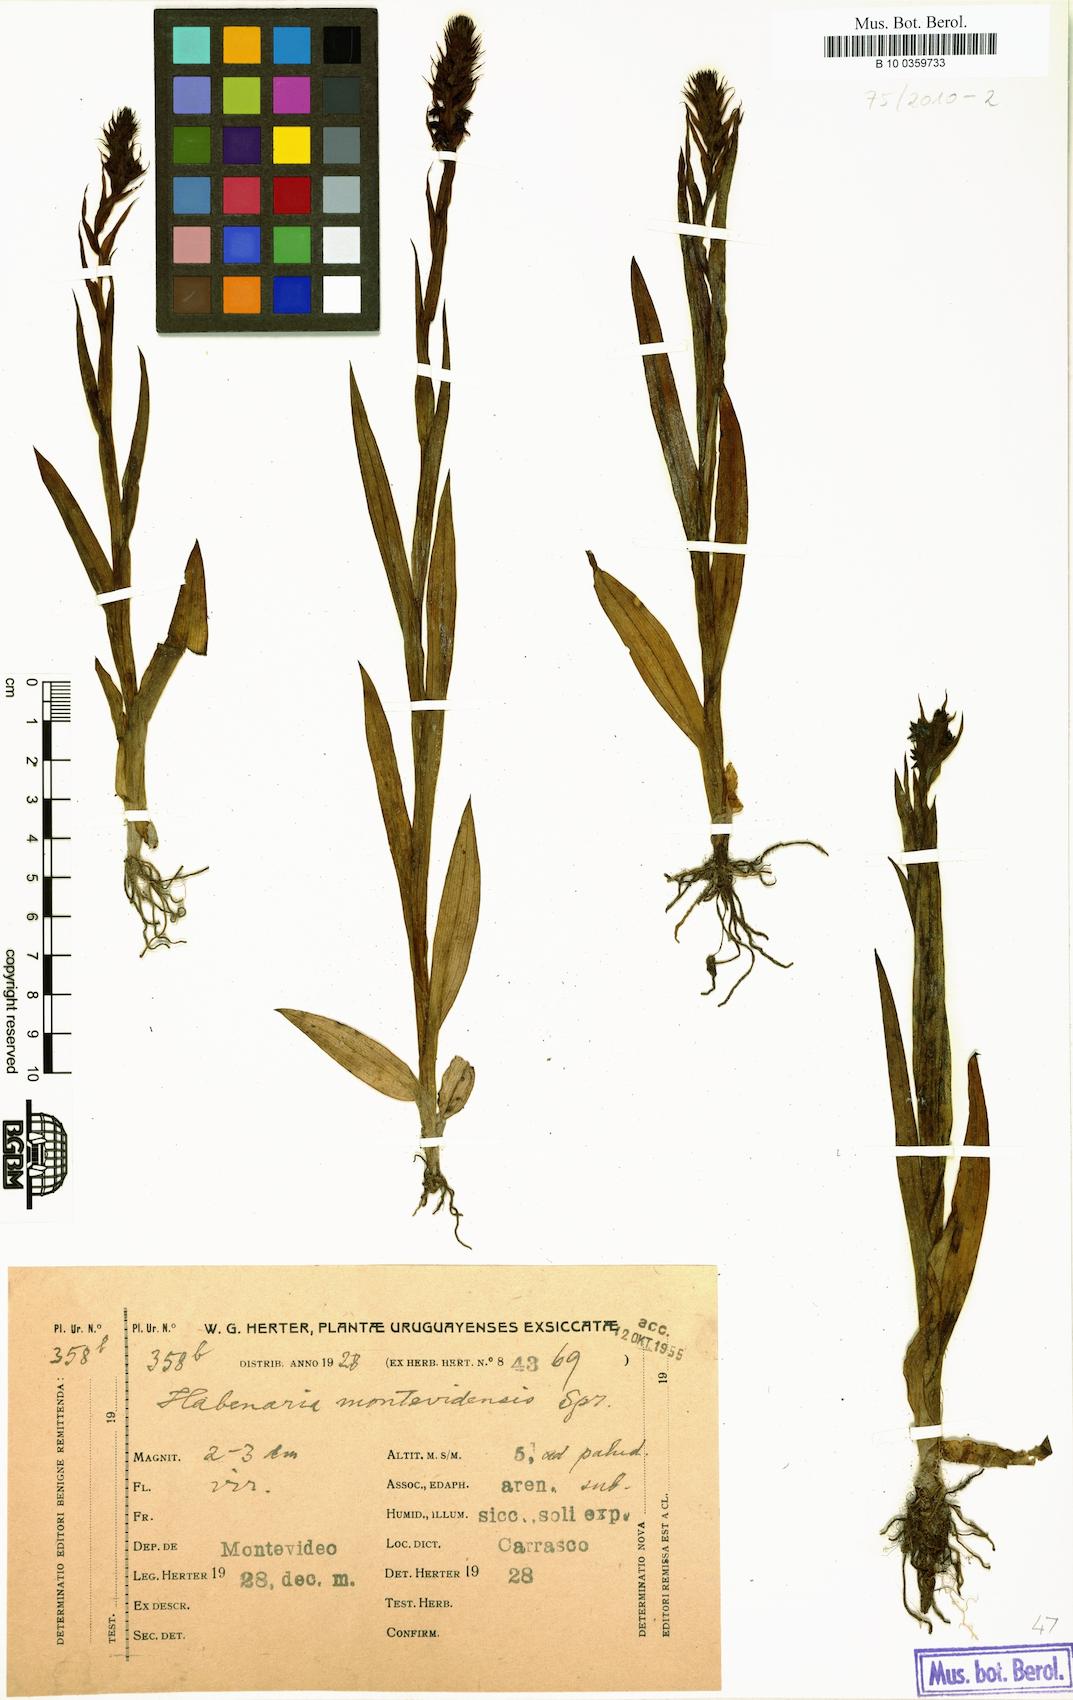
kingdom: Plantae
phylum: Tracheophyta
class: Liliopsida
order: Asparagales
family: Orchidaceae
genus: Habenaria
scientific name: Habenaria parviflora
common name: Small flowered habenaria
